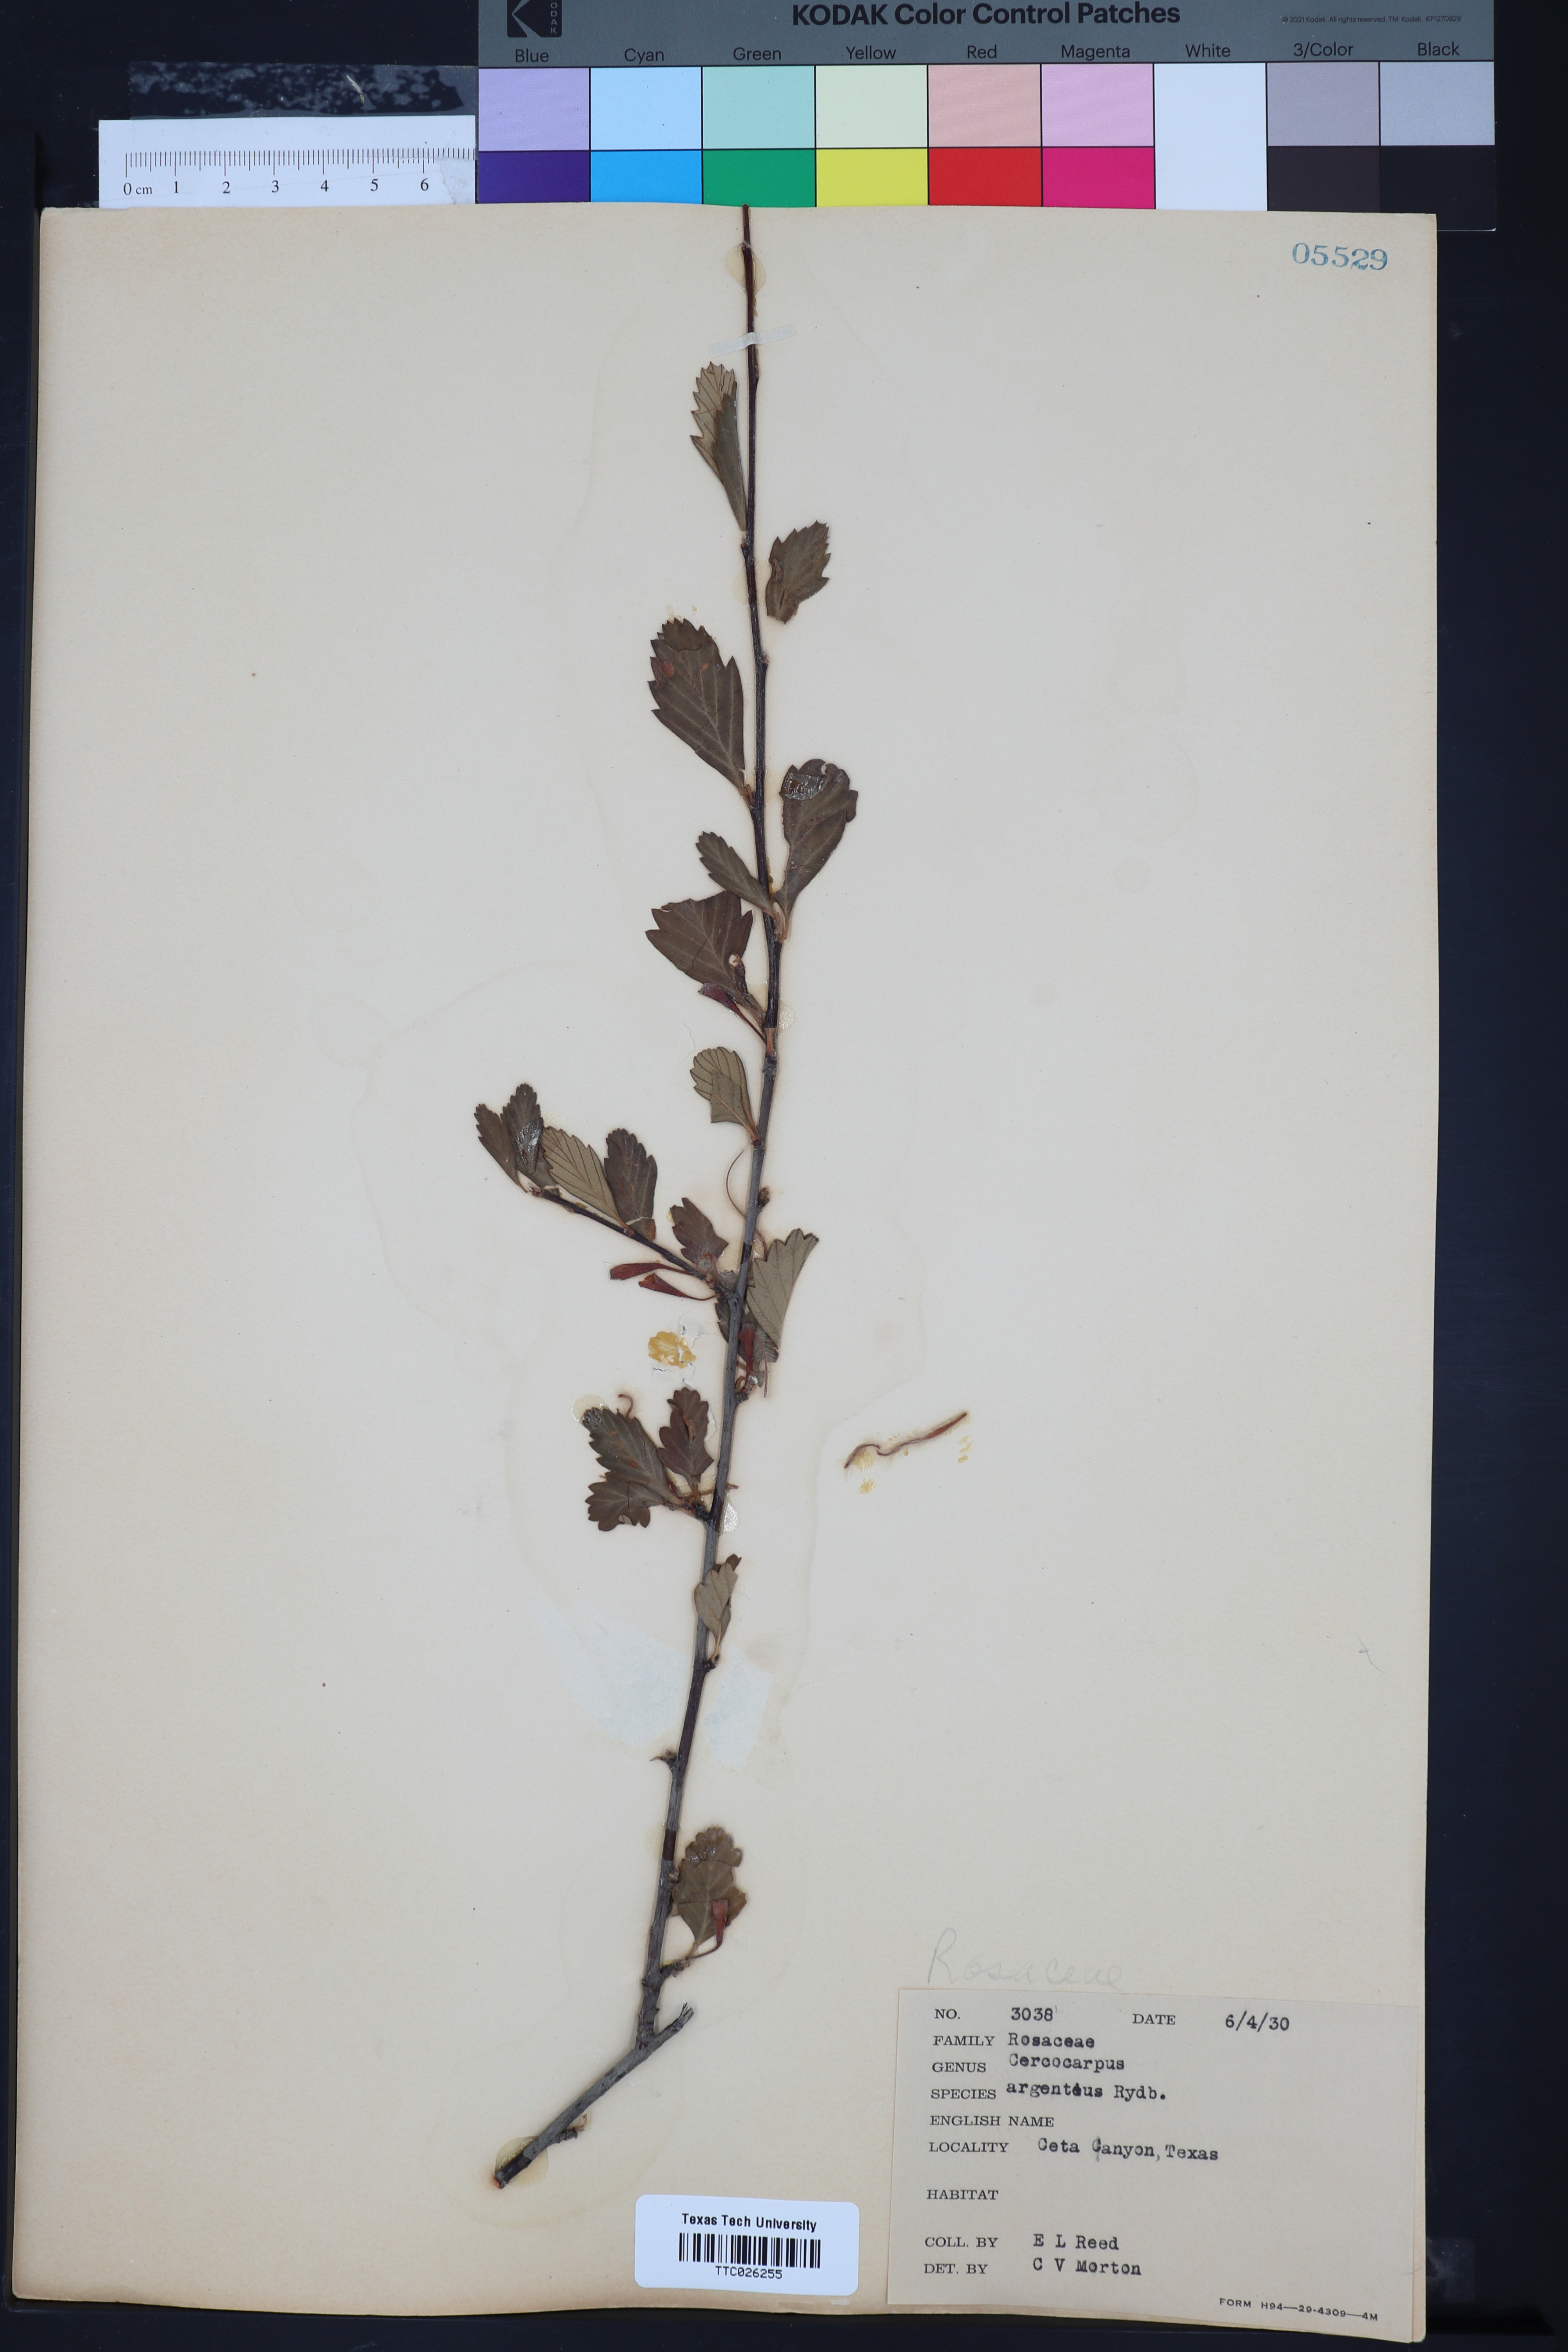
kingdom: Plantae
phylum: Tracheophyta
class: Magnoliopsida
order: Rosales
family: Rosaceae
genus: Cercocarpus
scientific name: Cercocarpus intricatus
